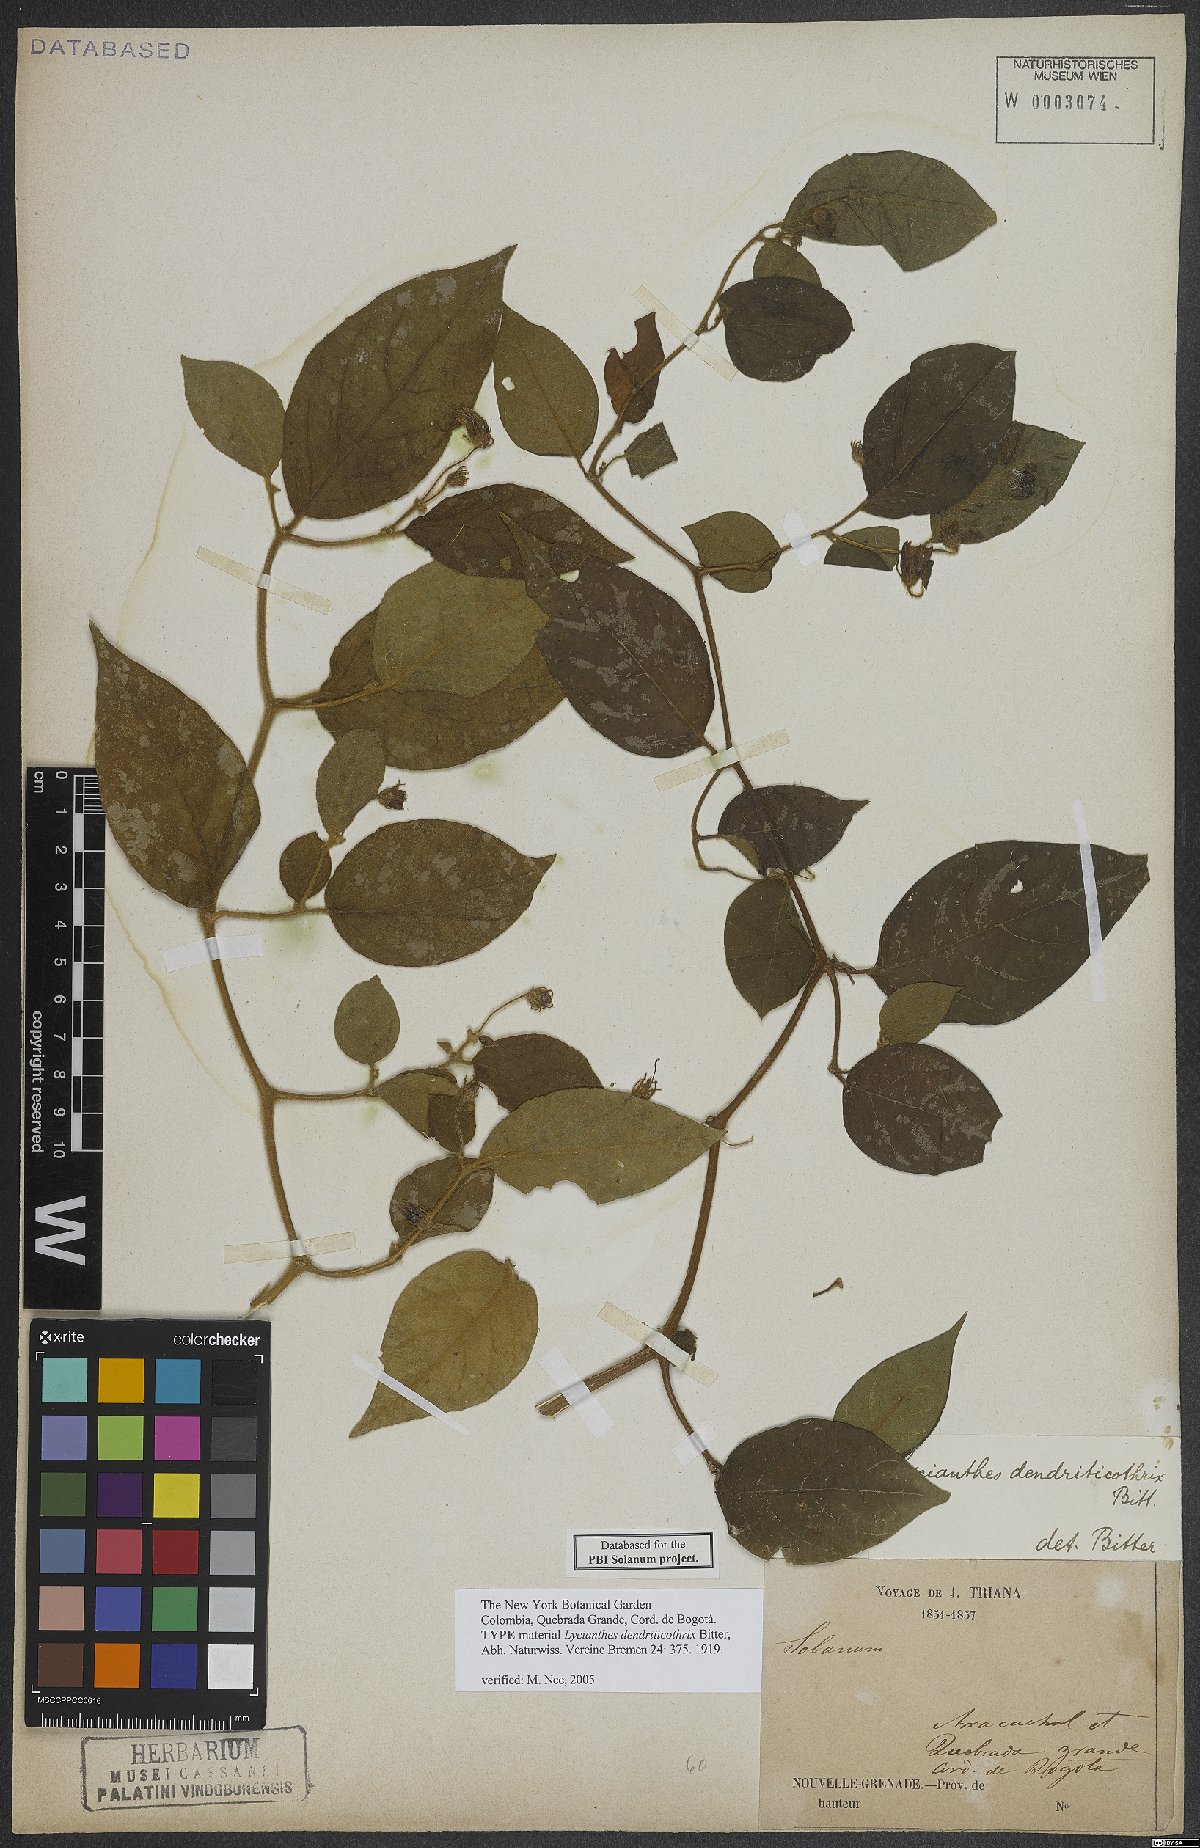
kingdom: Plantae
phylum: Tracheophyta
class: Magnoliopsida
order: Solanales
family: Solanaceae
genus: Lycianthes
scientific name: Lycianthes dendriticothrix
